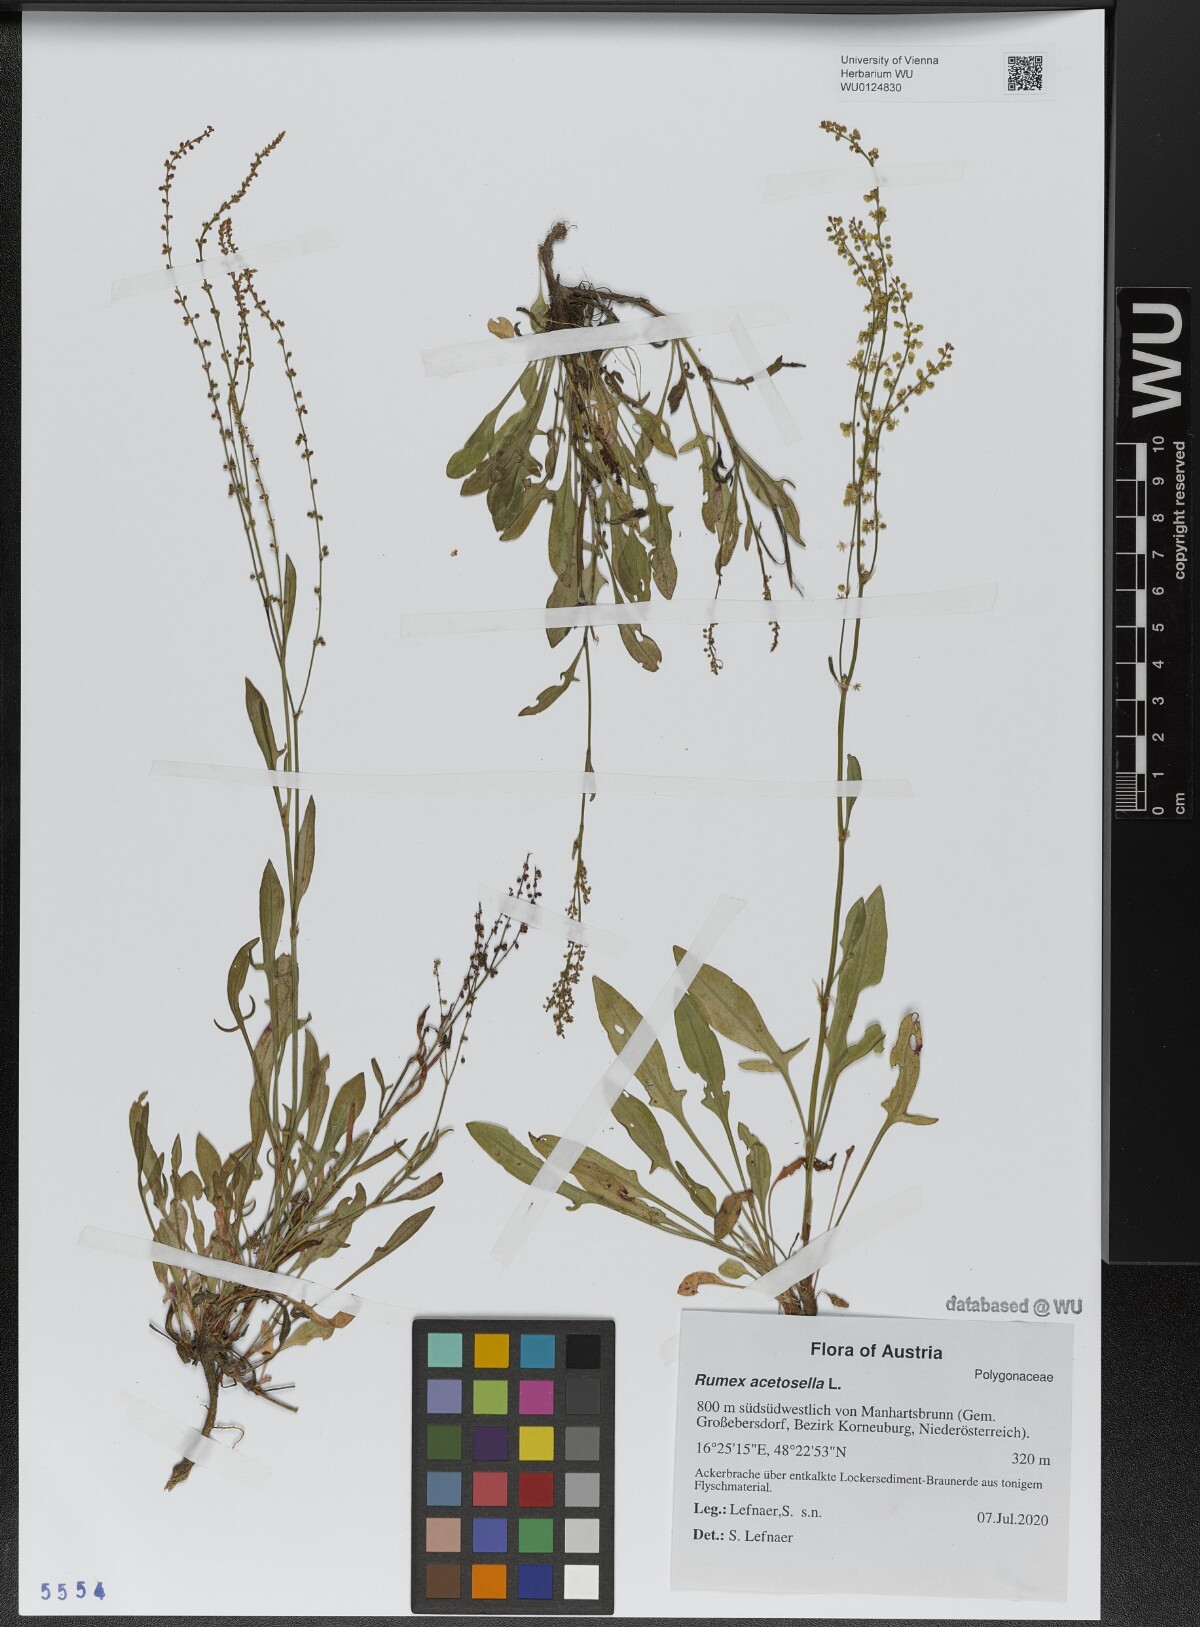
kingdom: Plantae
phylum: Tracheophyta
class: Magnoliopsida
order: Caryophyllales
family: Polygonaceae
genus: Rumex
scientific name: Rumex acetosella
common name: Common sheep sorrel
